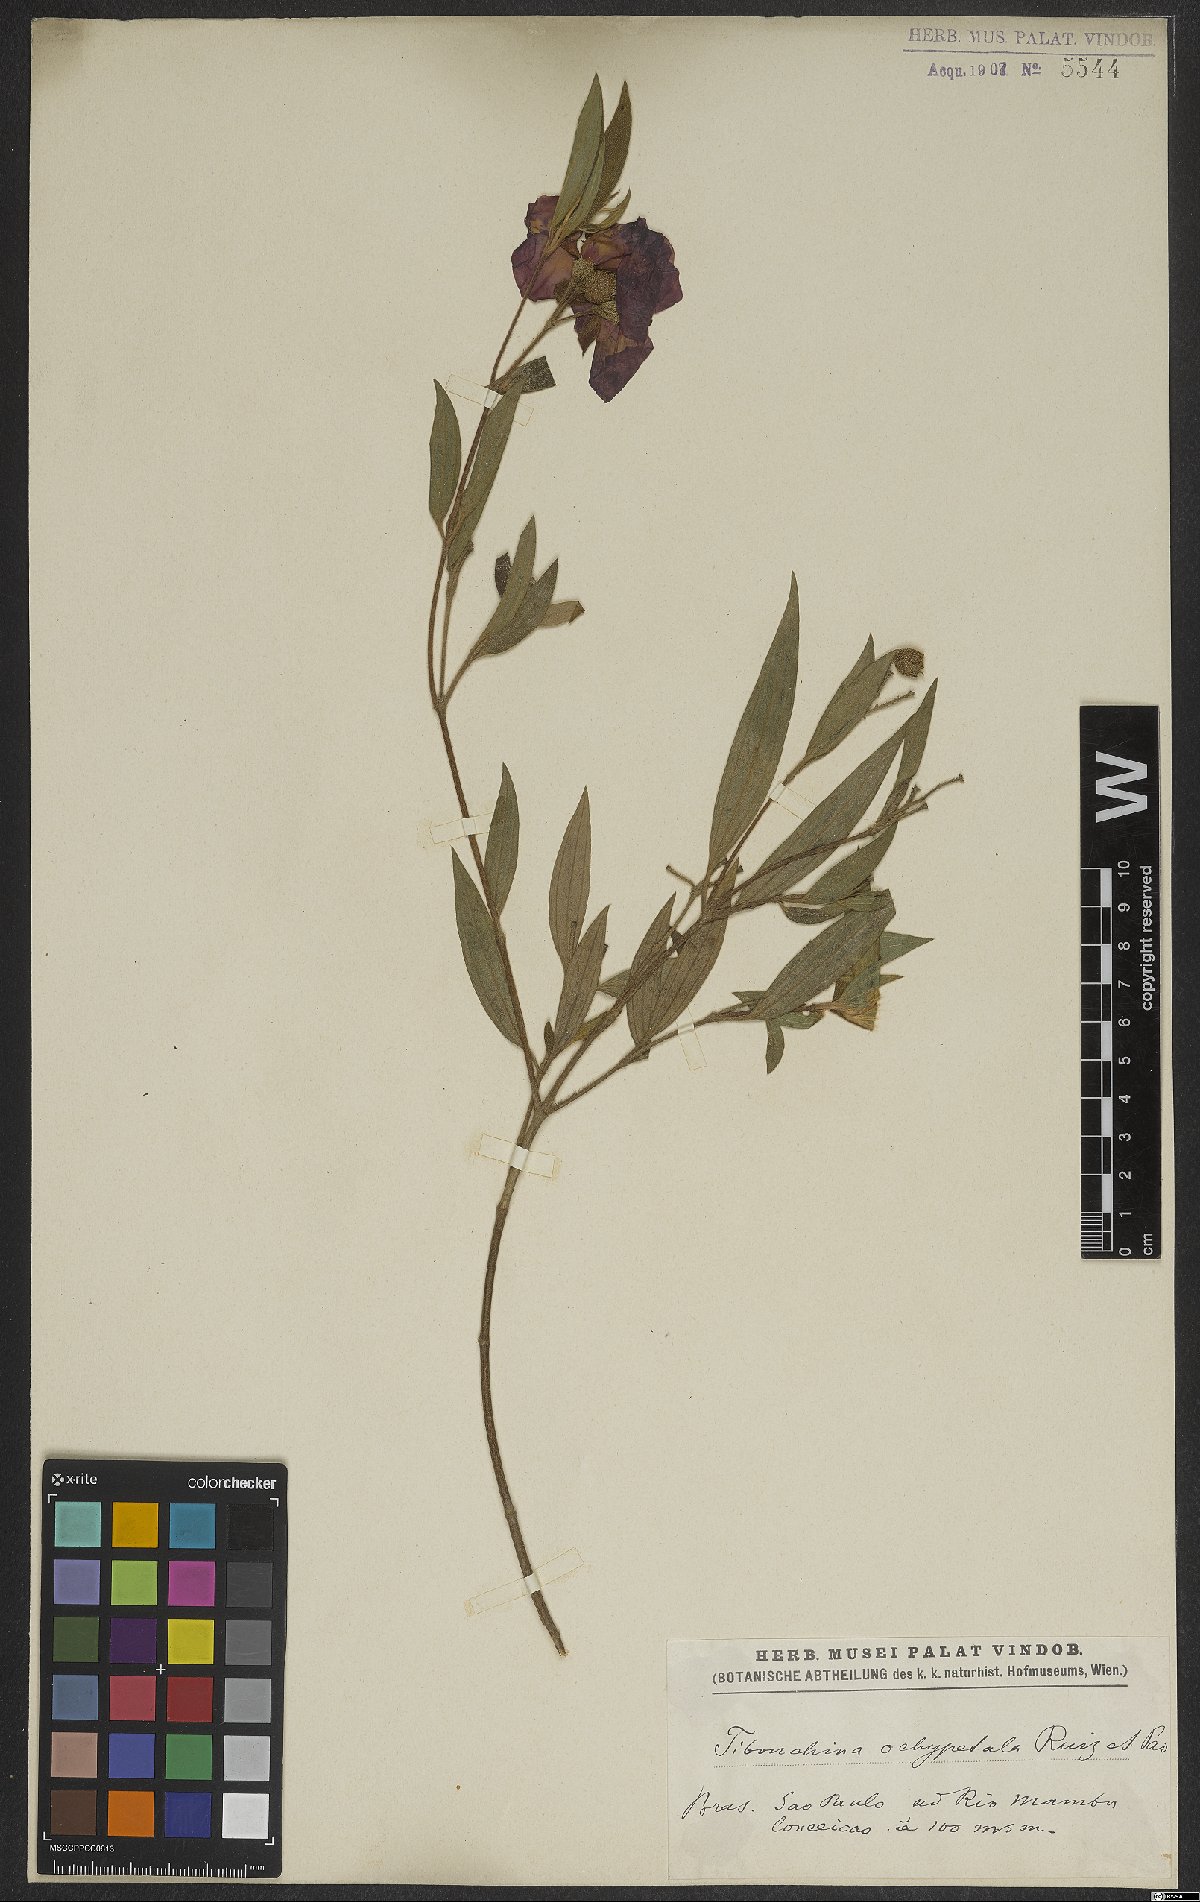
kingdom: Plantae
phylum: Tracheophyta
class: Magnoliopsida
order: Myrtales
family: Melastomataceae
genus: Pleroma
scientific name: Pleroma ochypetalum
